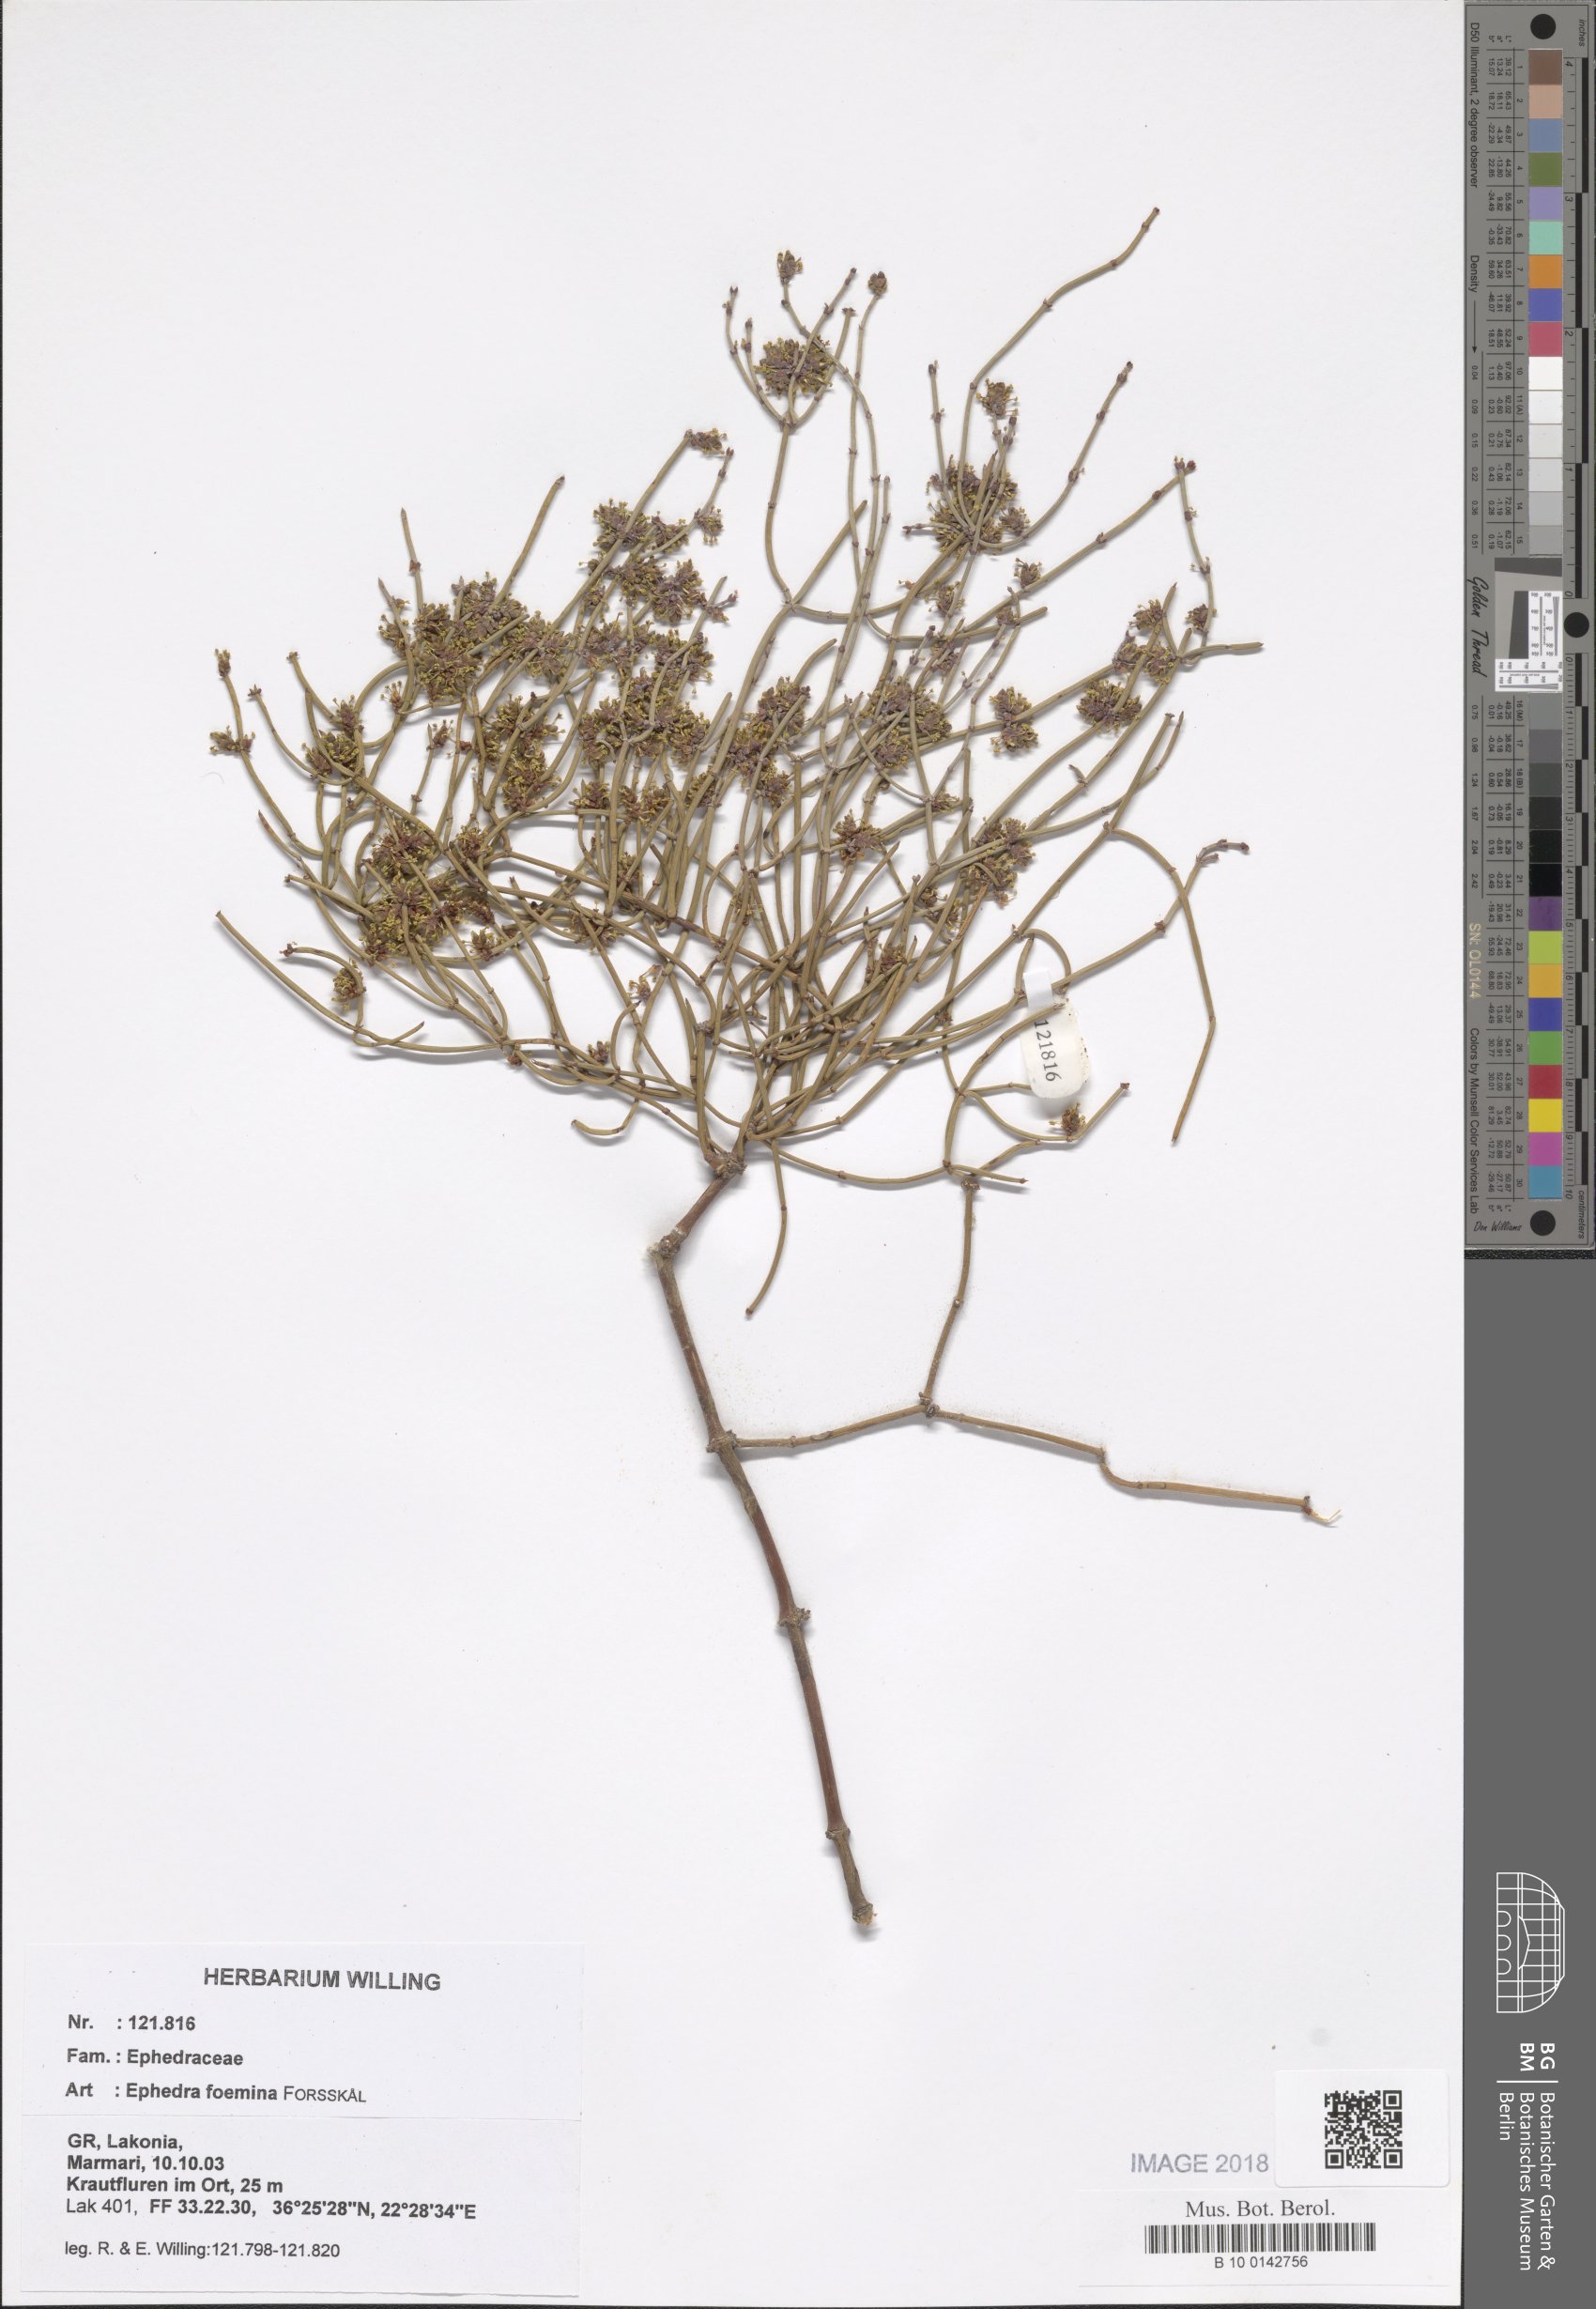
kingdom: Plantae
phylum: Tracheophyta
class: Gnetopsida
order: Ephedrales
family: Ephedraceae
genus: Ephedra
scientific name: Ephedra foeminea
